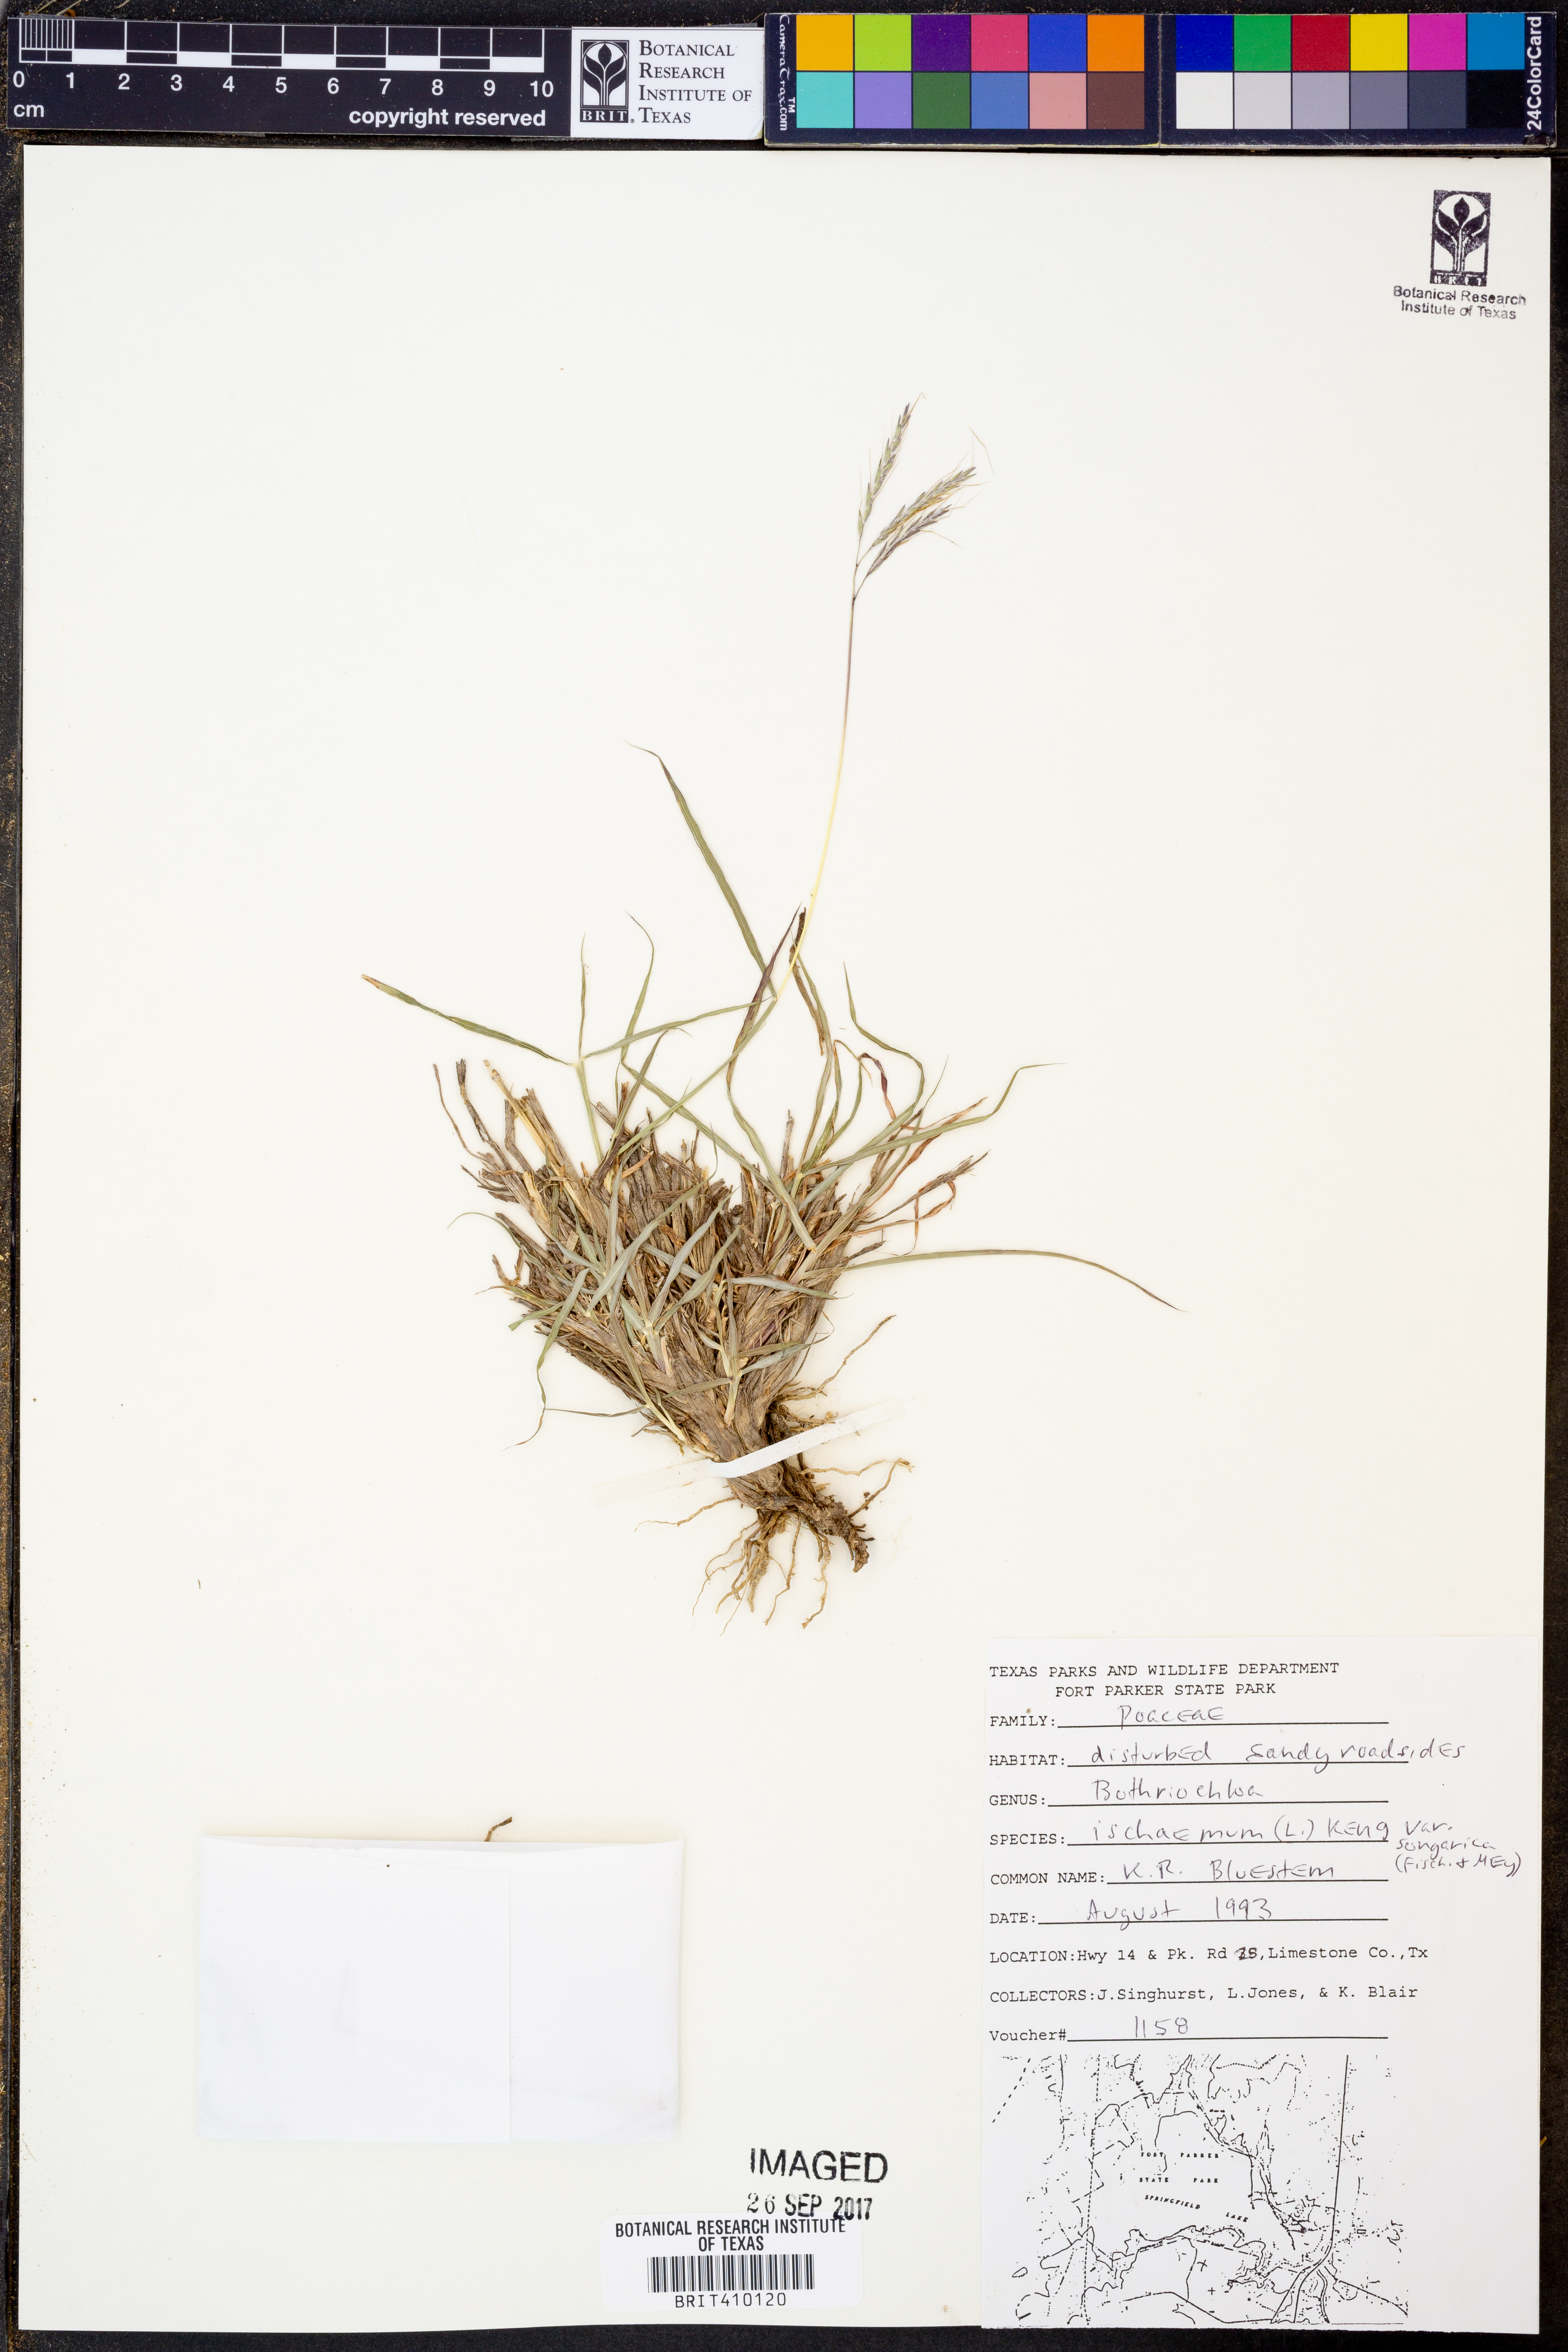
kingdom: Plantae
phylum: Tracheophyta
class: Liliopsida
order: Poales
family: Poaceae
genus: Bothriochloa
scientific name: Bothriochloa ischaemum
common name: Yellow bluestem
